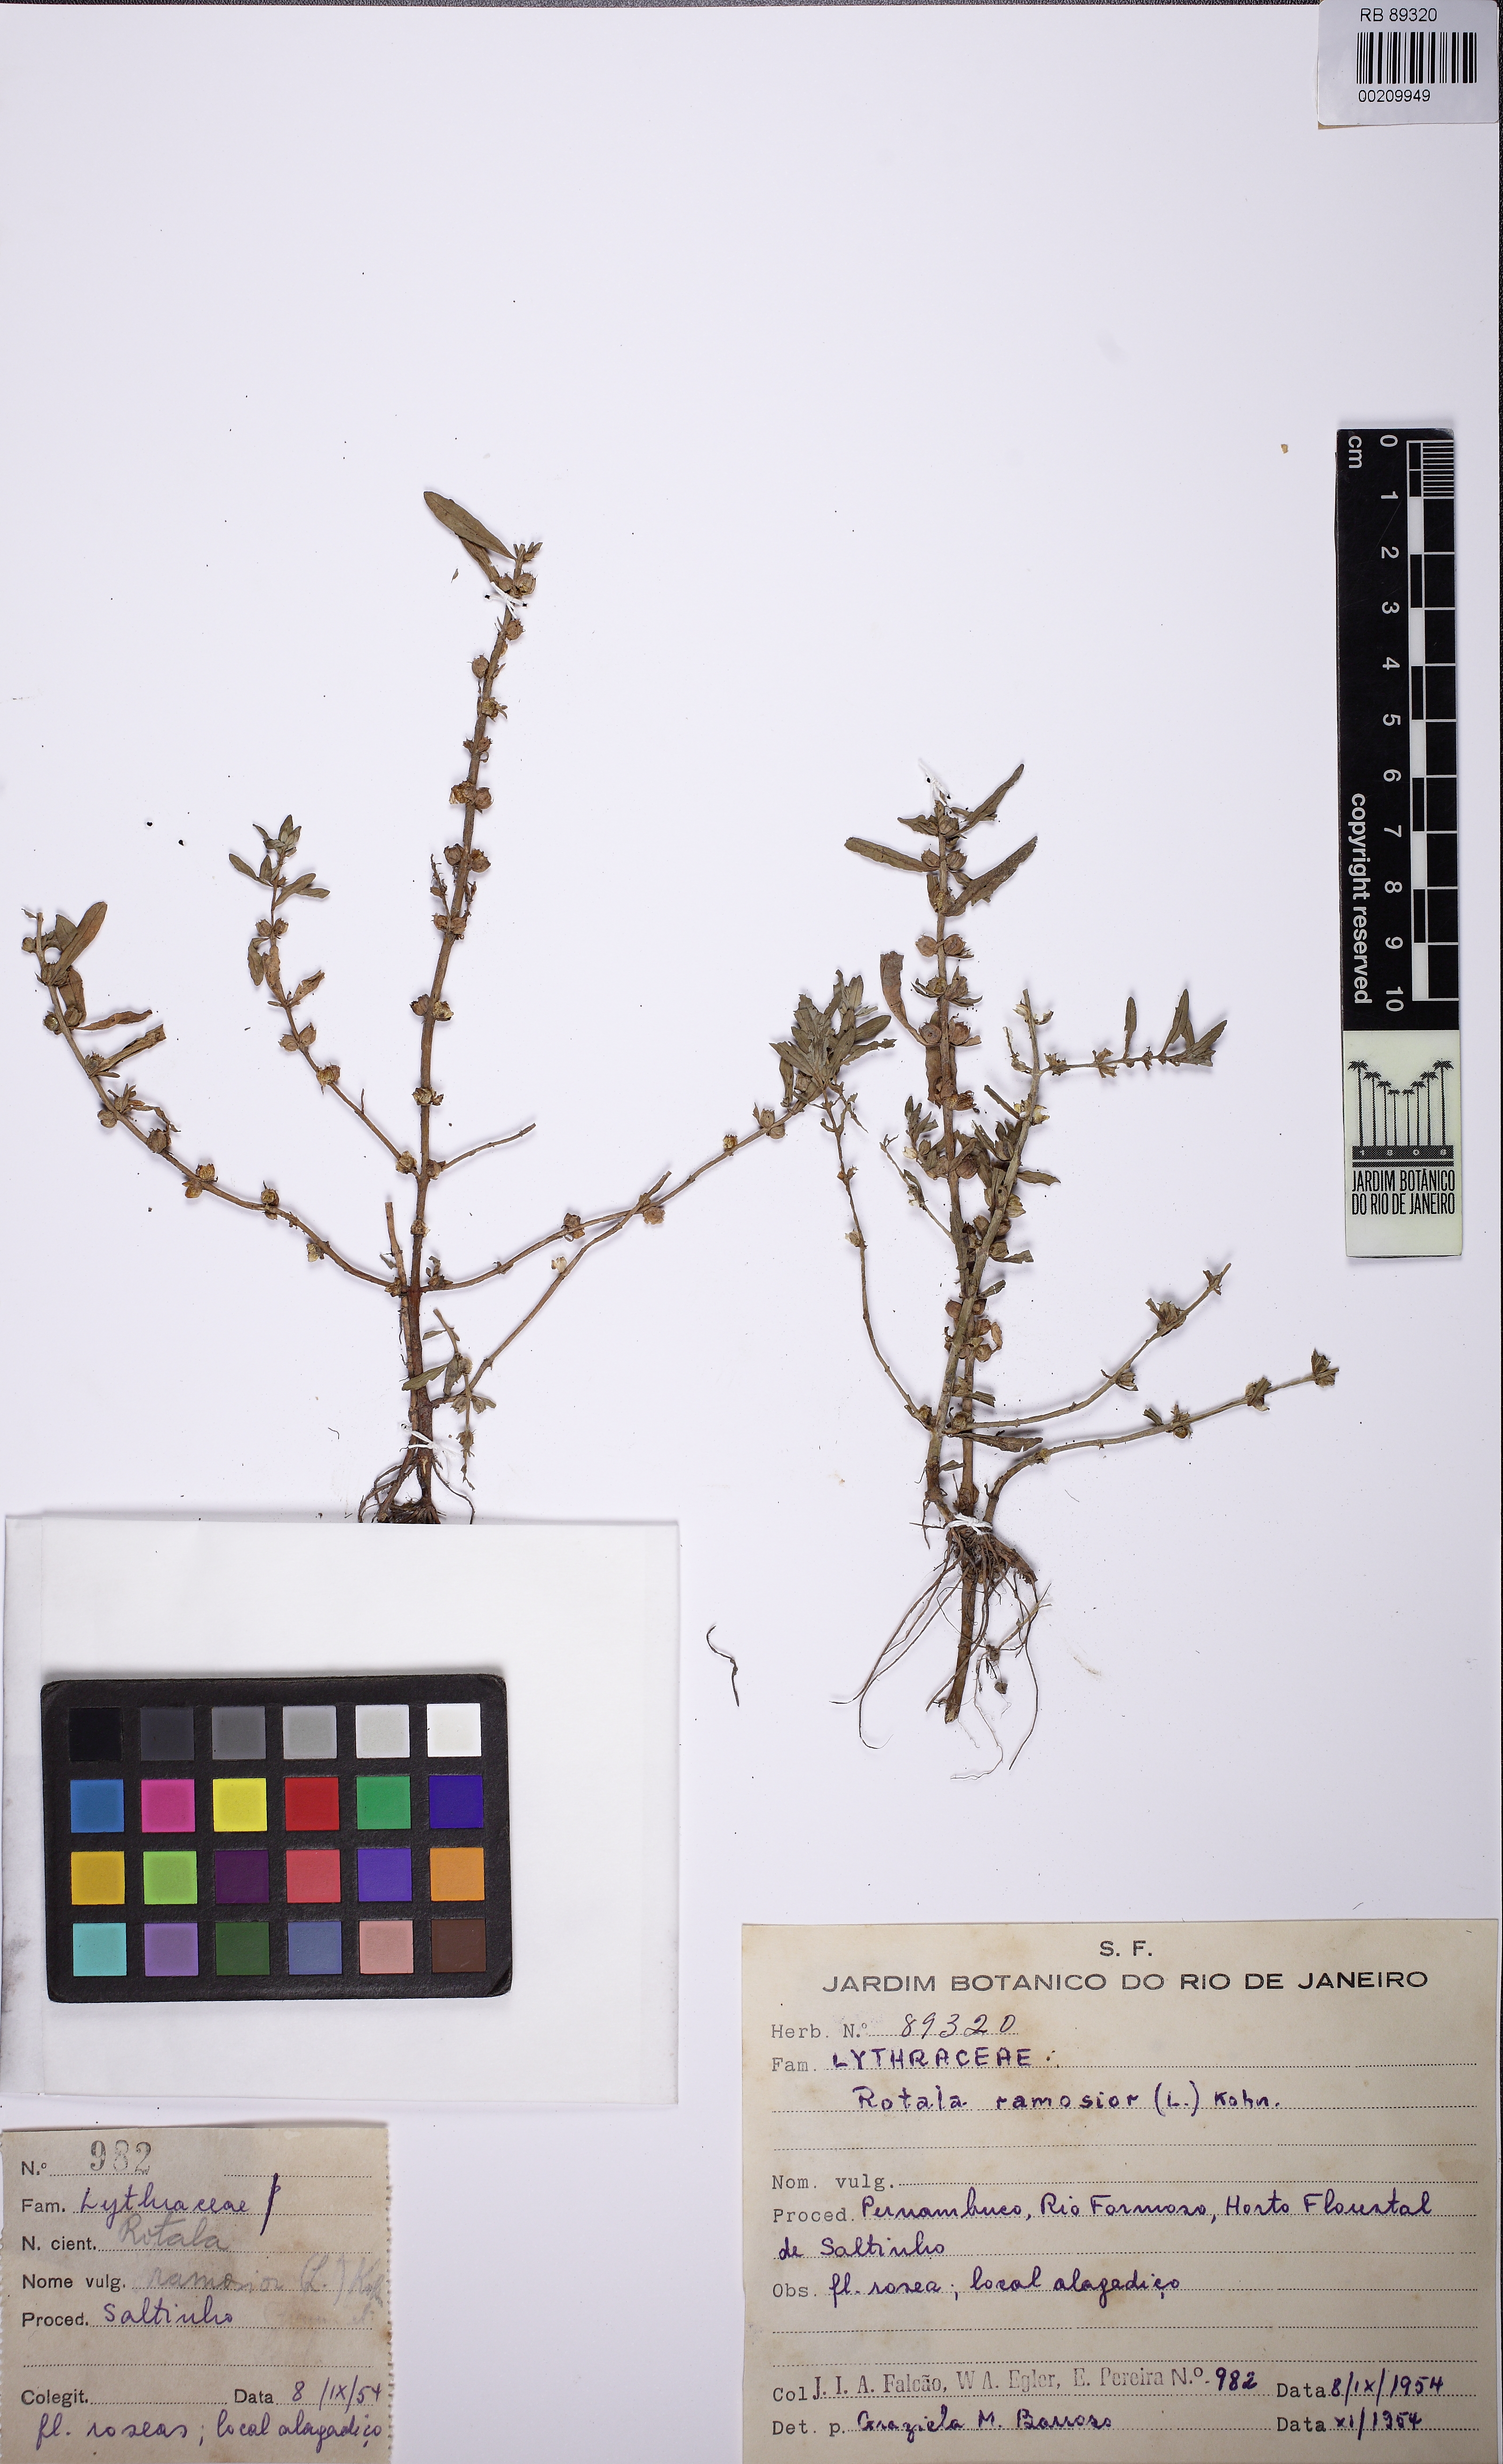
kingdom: Plantae
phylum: Tracheophyta
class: Magnoliopsida
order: Myrtales
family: Lythraceae
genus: Rotala
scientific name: Rotala ramosior
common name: Lowland rotala
